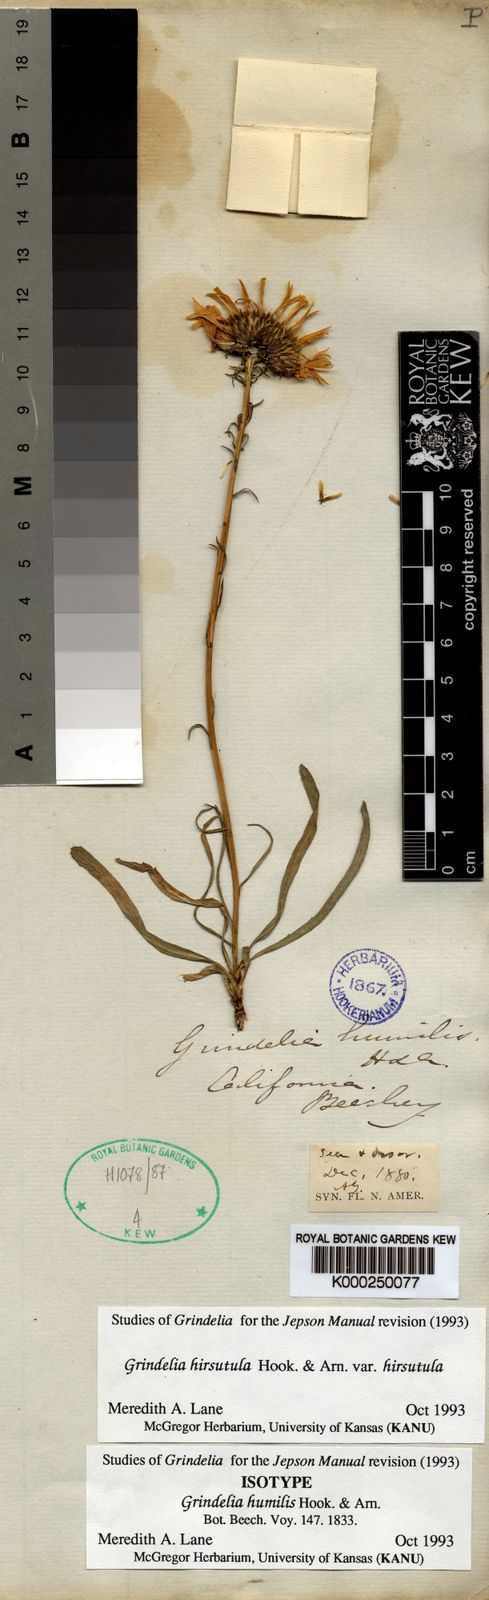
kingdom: Plantae
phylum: Tracheophyta
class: Magnoliopsida
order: Asterales
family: Asteraceae
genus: Grindelia
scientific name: Grindelia hirsutula
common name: Hairy gumweed
